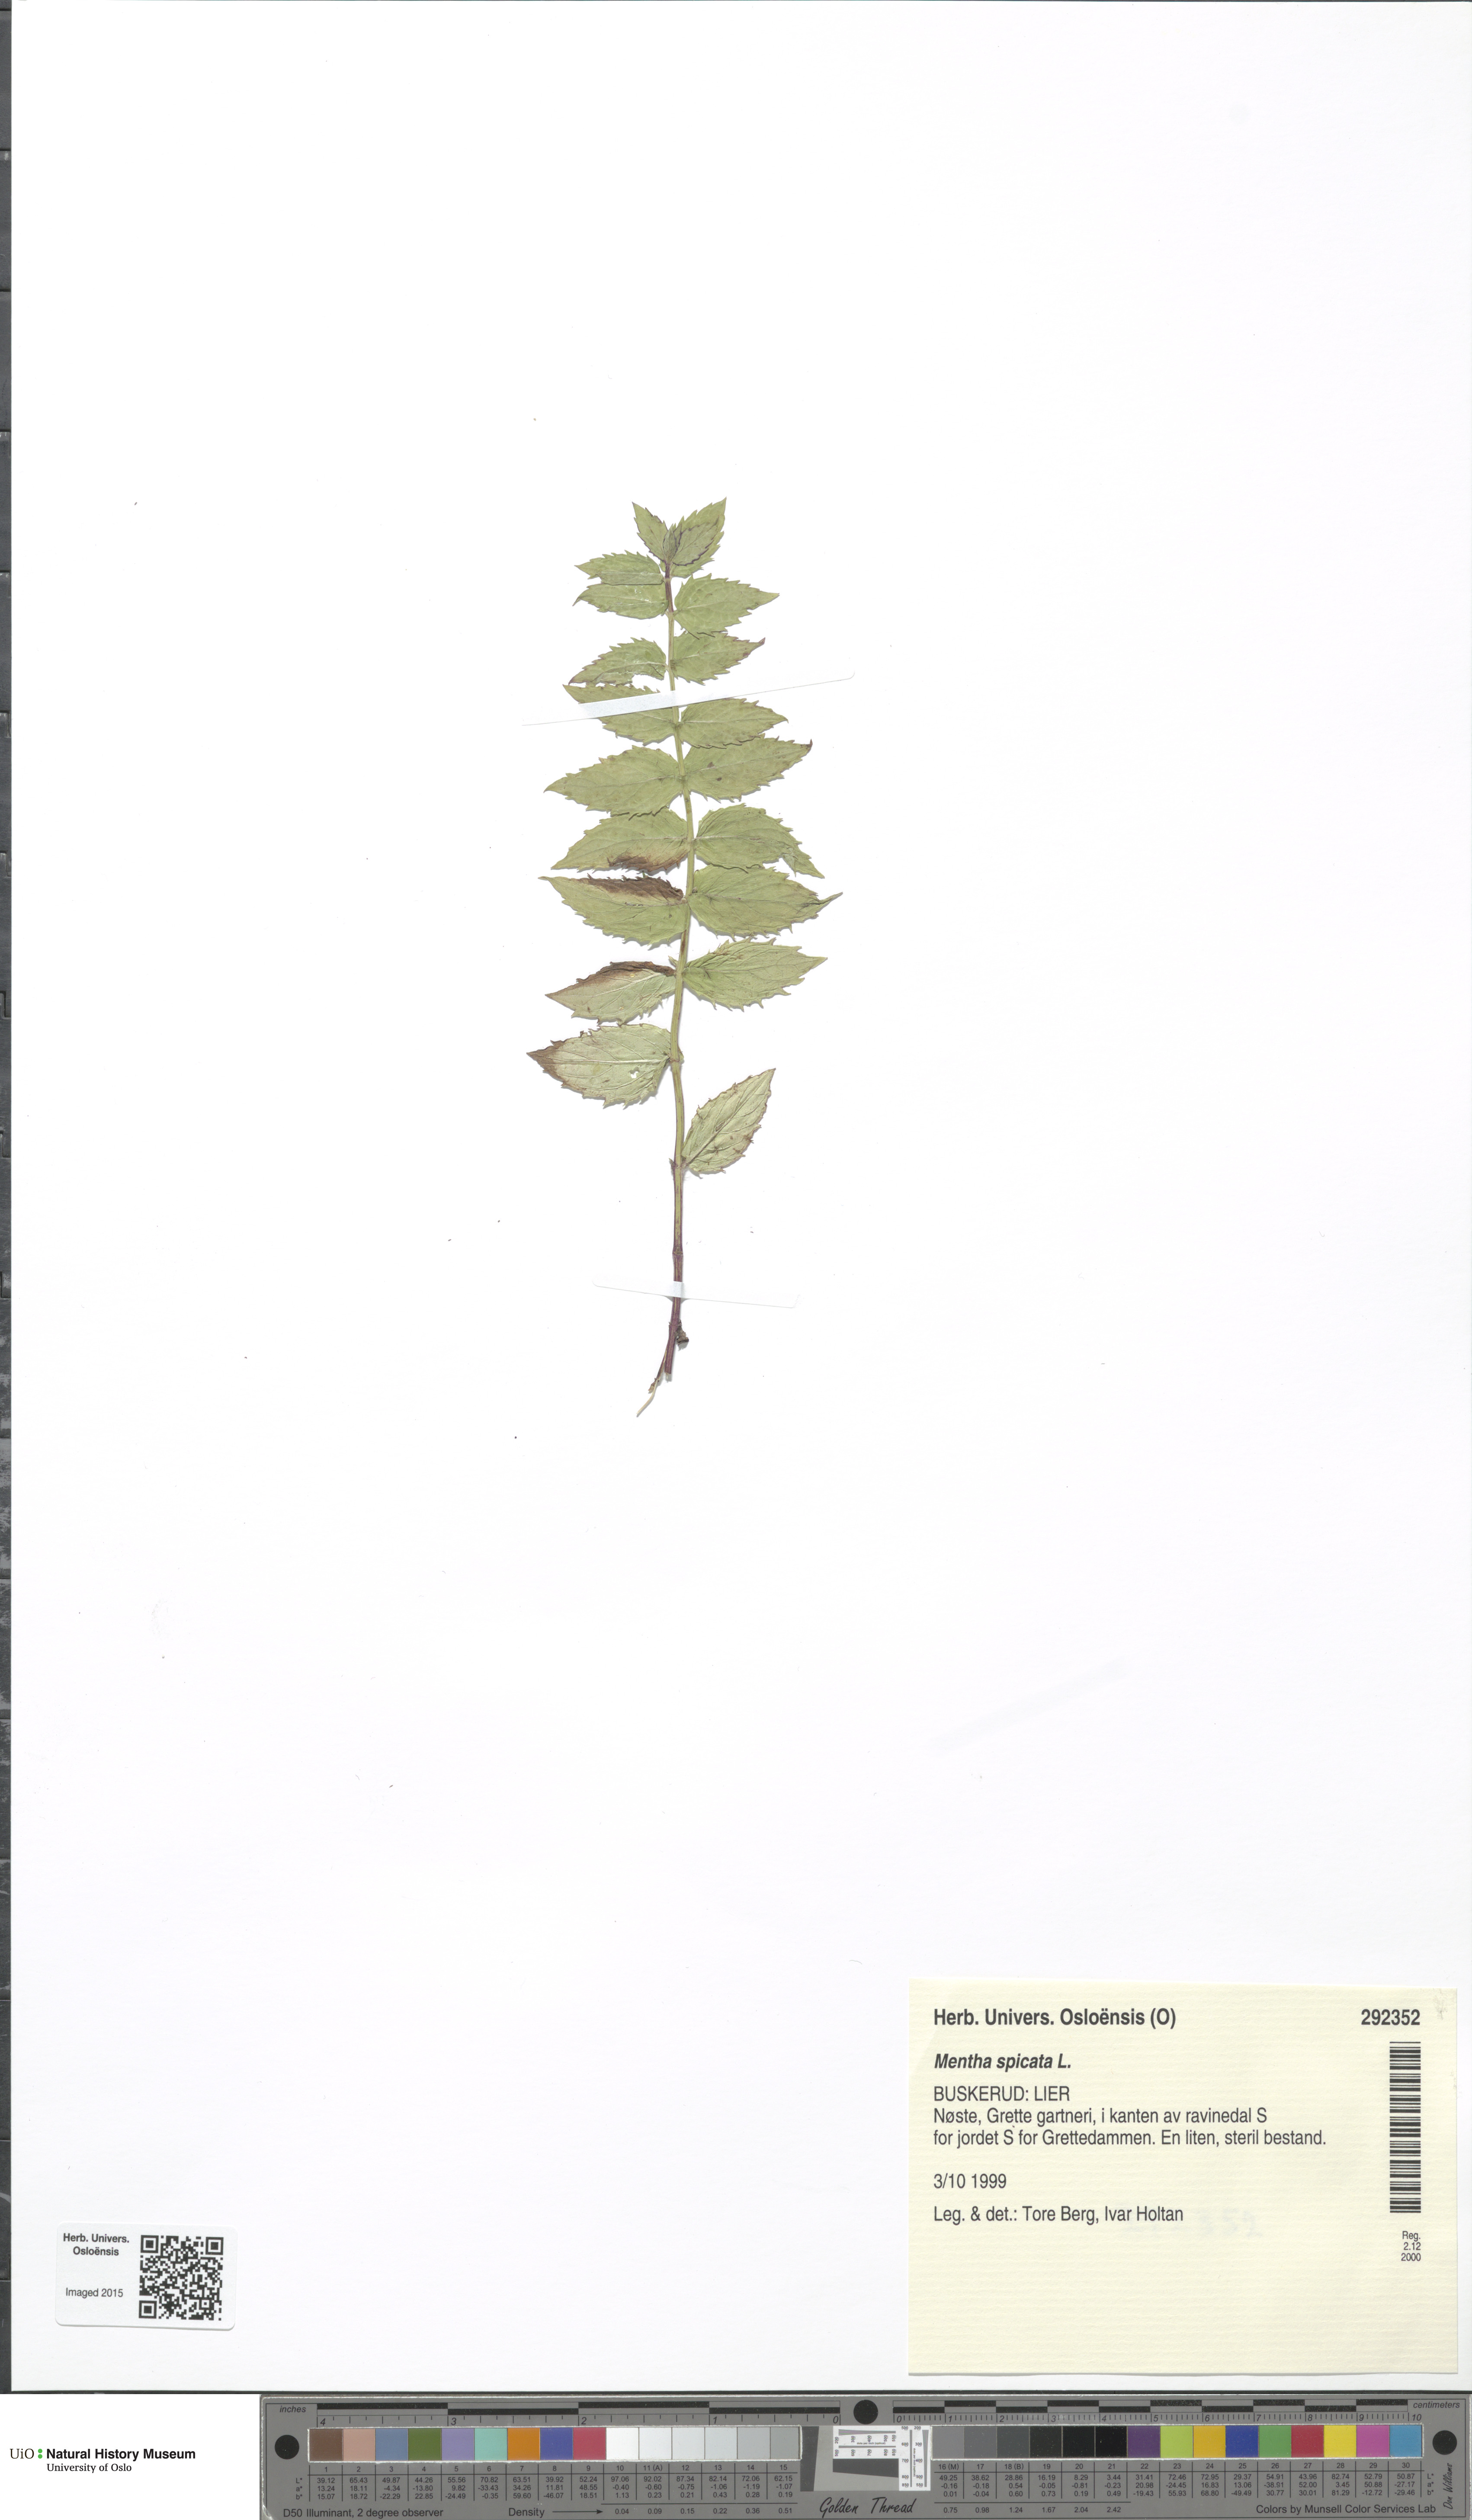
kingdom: Plantae
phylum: Tracheophyta
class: Magnoliopsida
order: Lamiales
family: Lamiaceae
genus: Mentha
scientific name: Mentha spicata
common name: Spearmint
